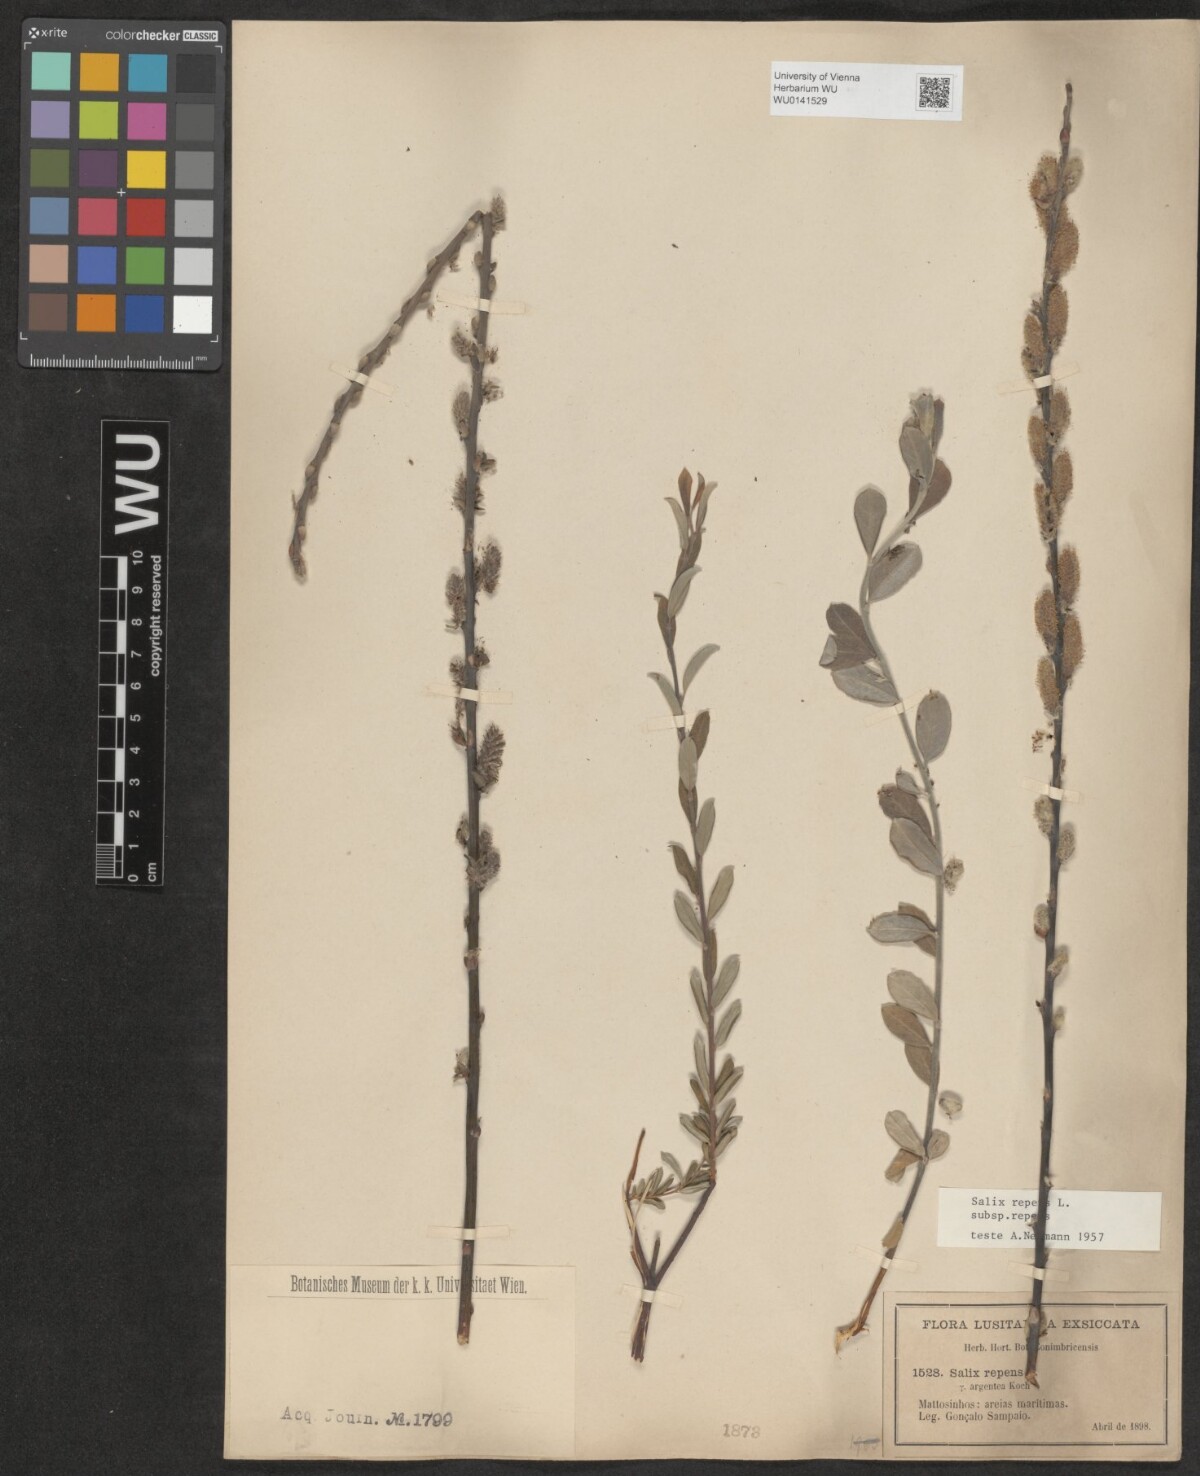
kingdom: Plantae
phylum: Tracheophyta
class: Magnoliopsida
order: Malpighiales
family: Salicaceae
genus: Salix
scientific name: Salix repens
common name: Creeping willow
